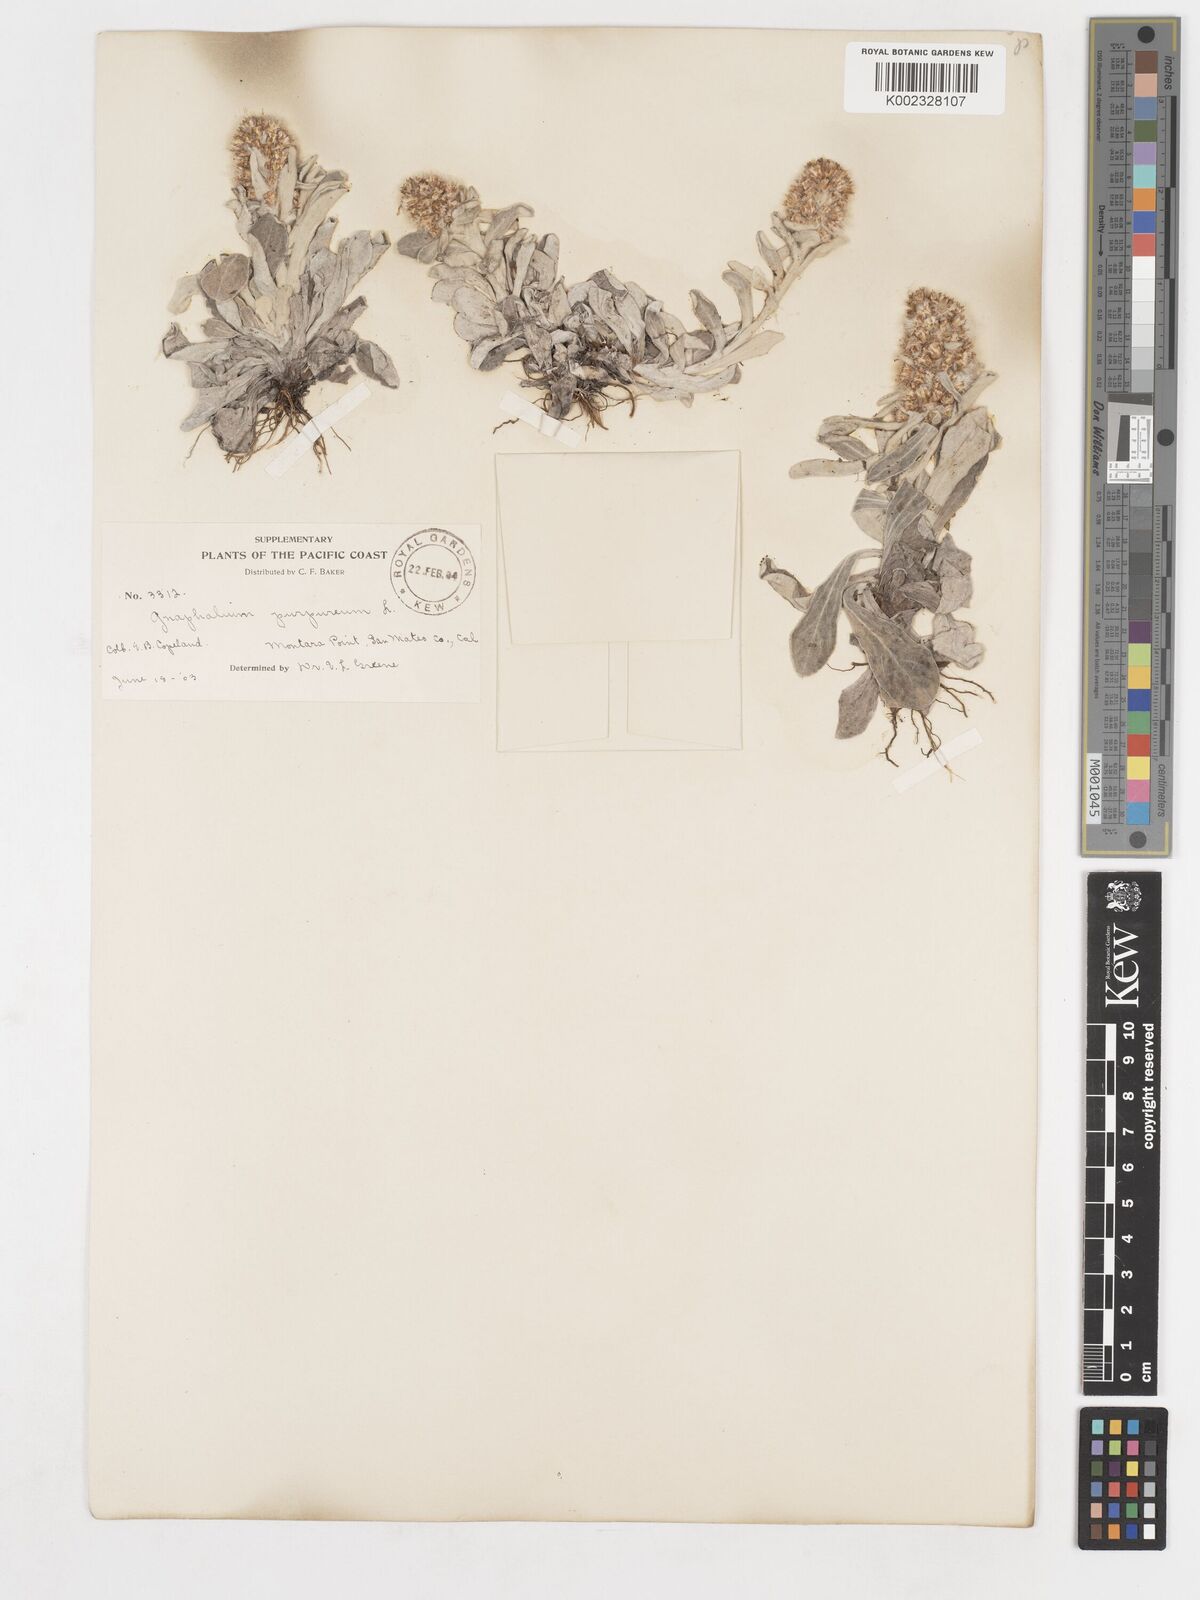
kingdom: Plantae
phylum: Tracheophyta
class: Magnoliopsida
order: Asterales
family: Asteraceae
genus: Gamochaeta
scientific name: Gamochaeta purpurea
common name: Purple cudweed
